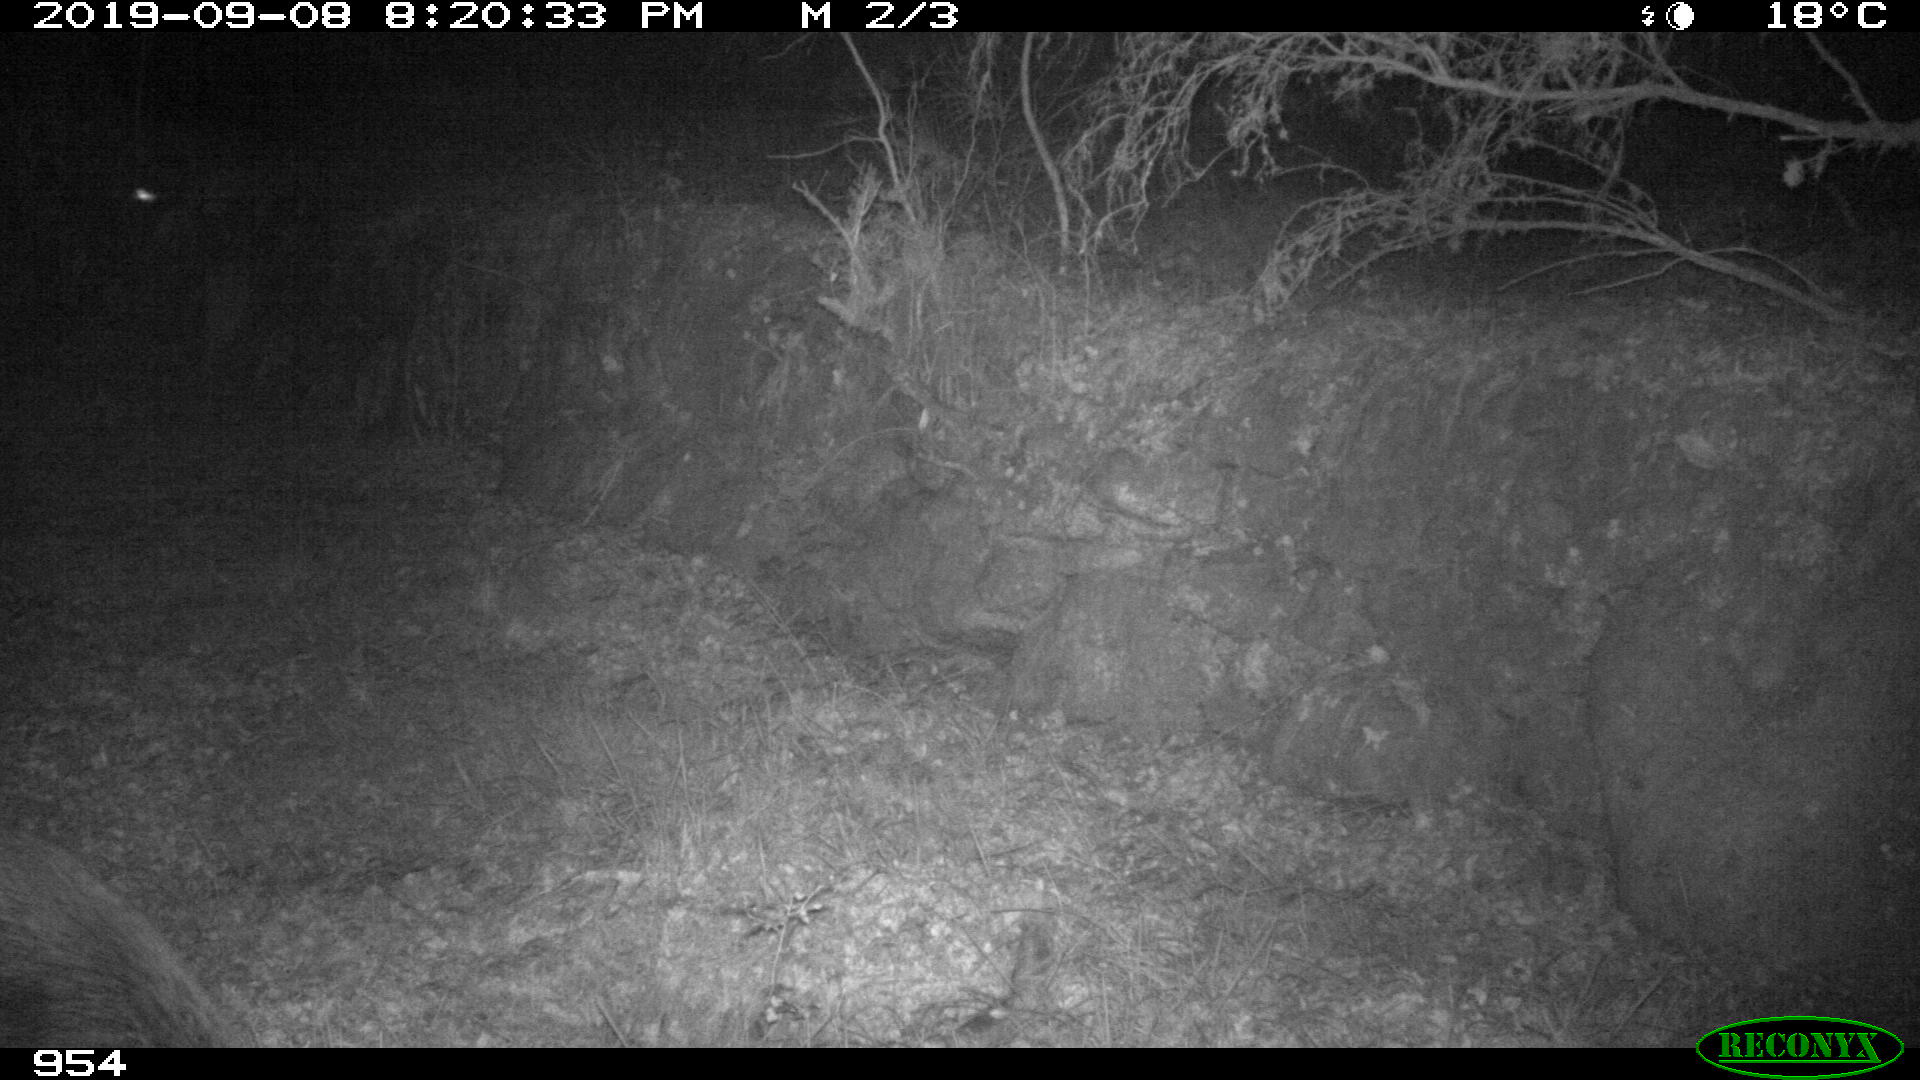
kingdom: Animalia
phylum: Chordata
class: Mammalia
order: Artiodactyla
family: Suidae
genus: Sus
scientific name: Sus scrofa
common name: Wild boar
